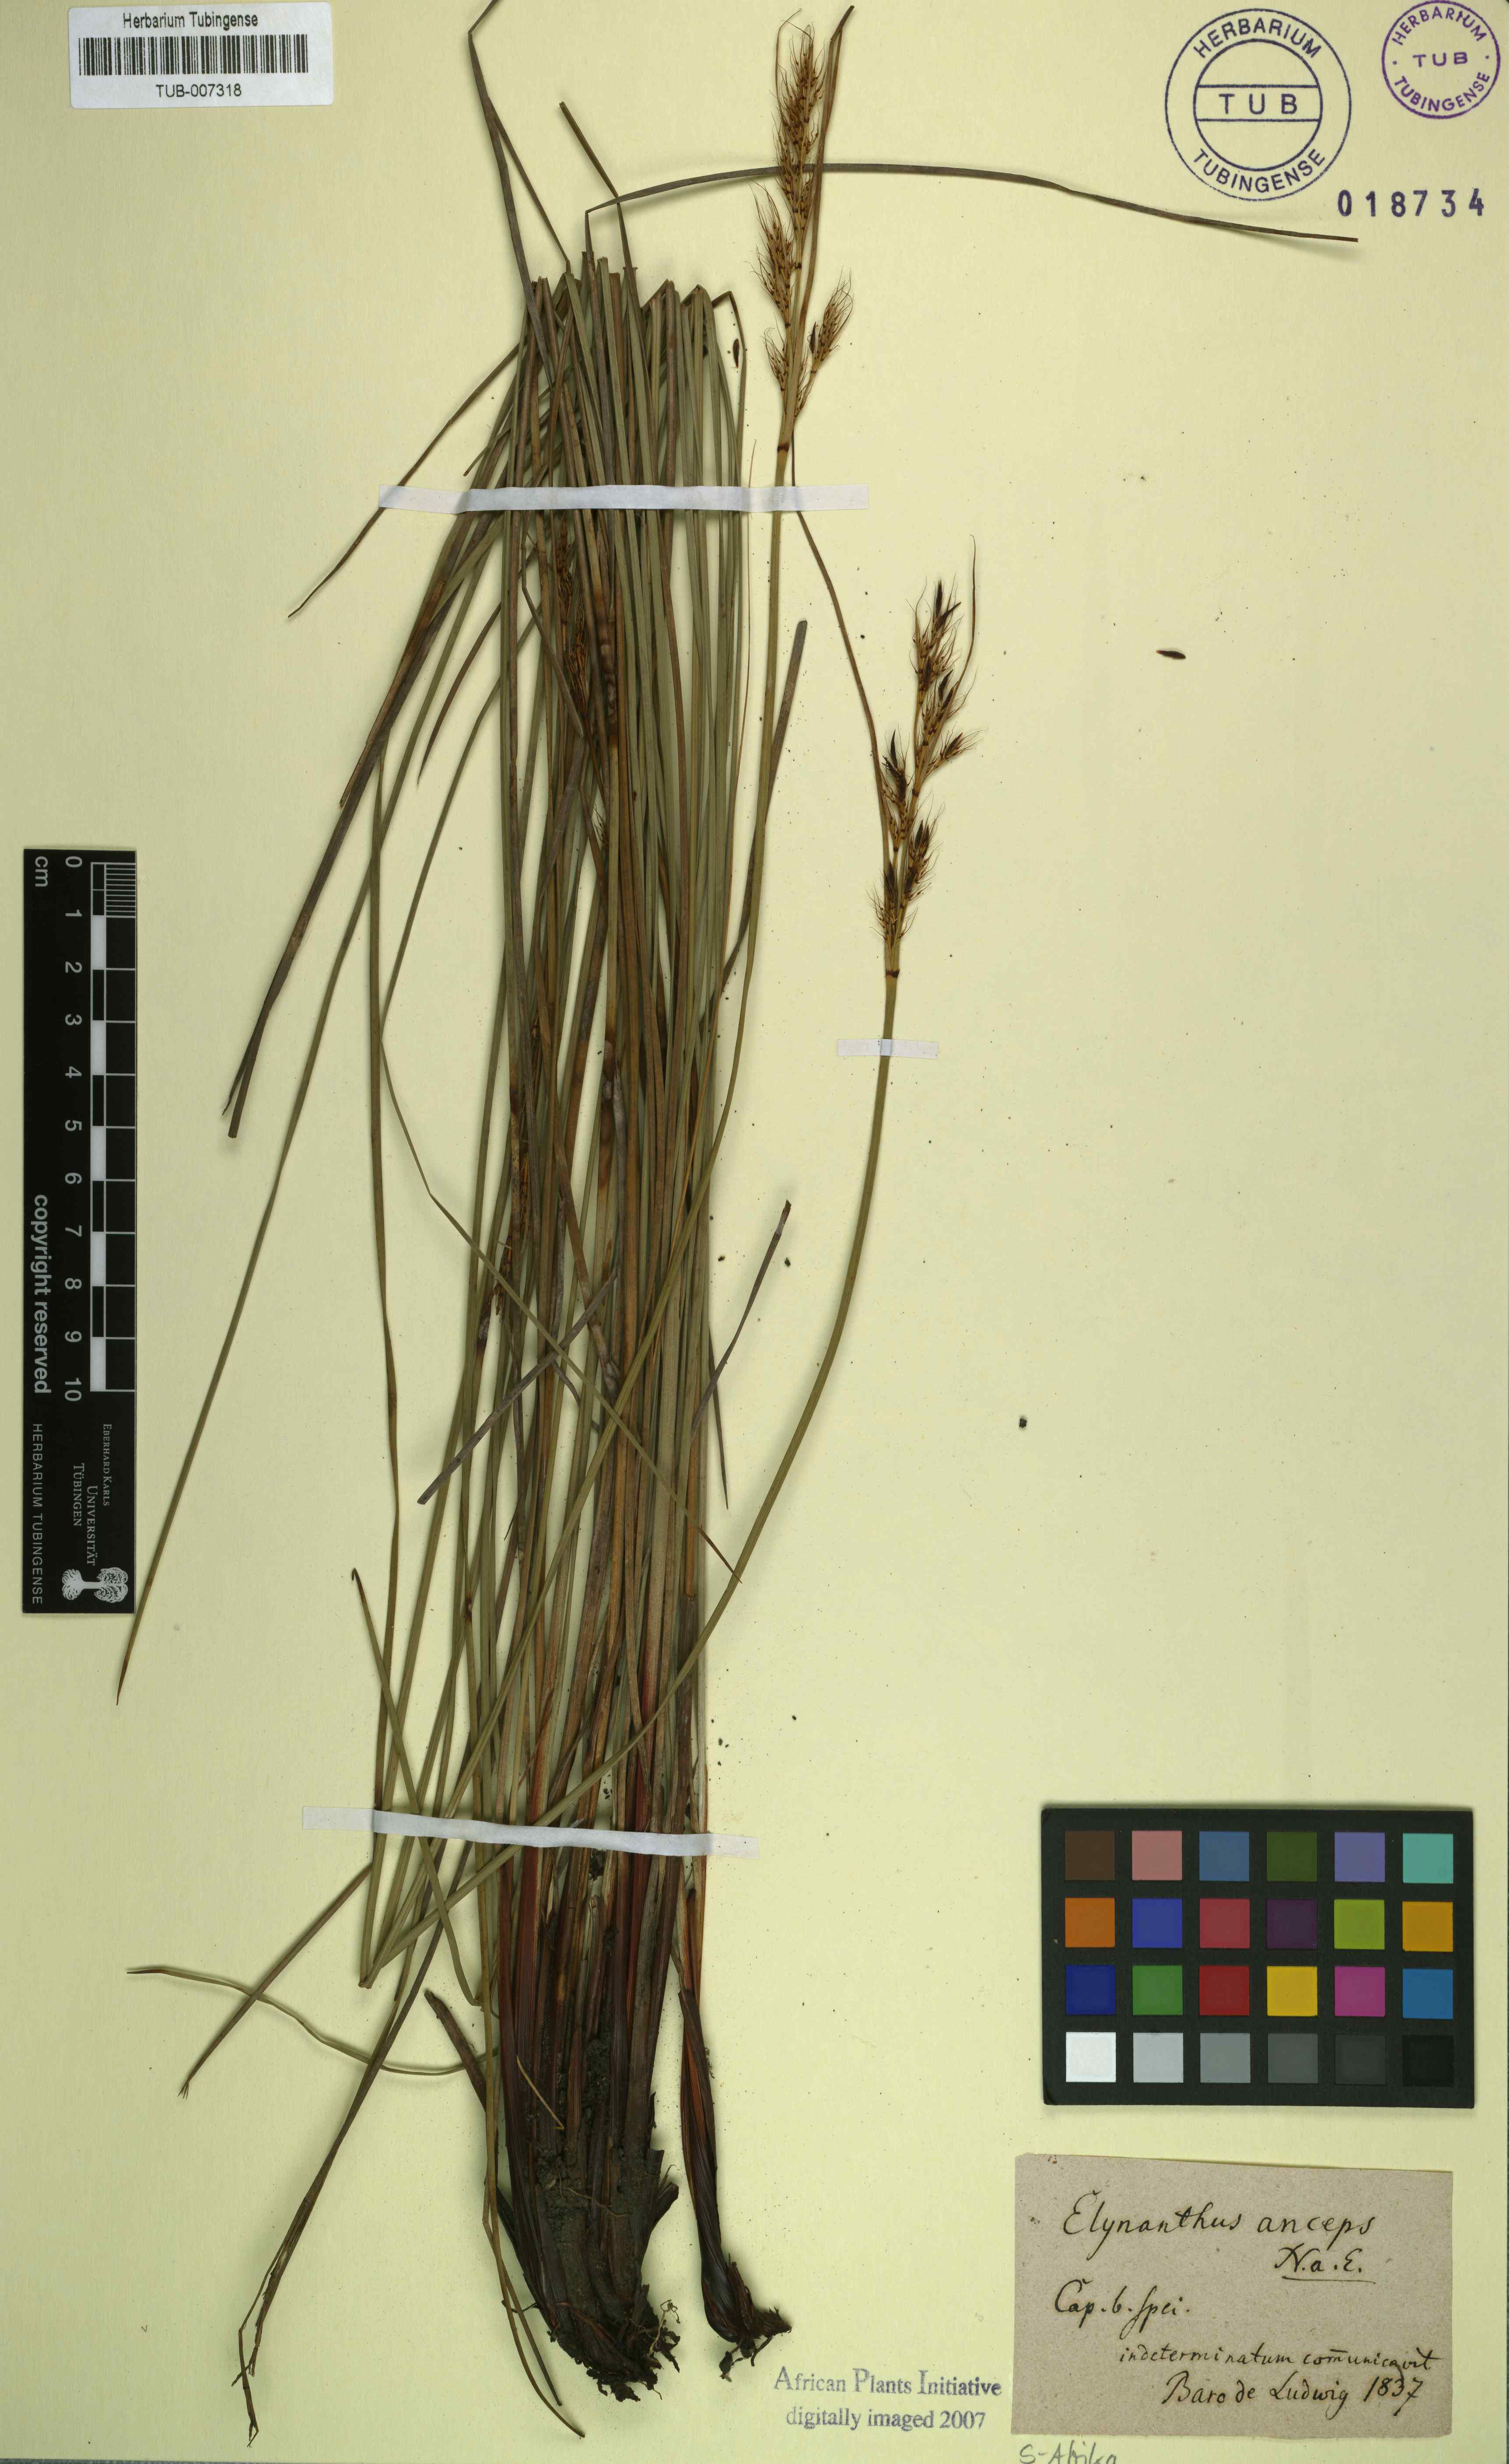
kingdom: Plantae
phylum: Tracheophyta
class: Liliopsida
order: Poales
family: Cyperaceae
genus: Elynanthus
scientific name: Elynanthus anceps
